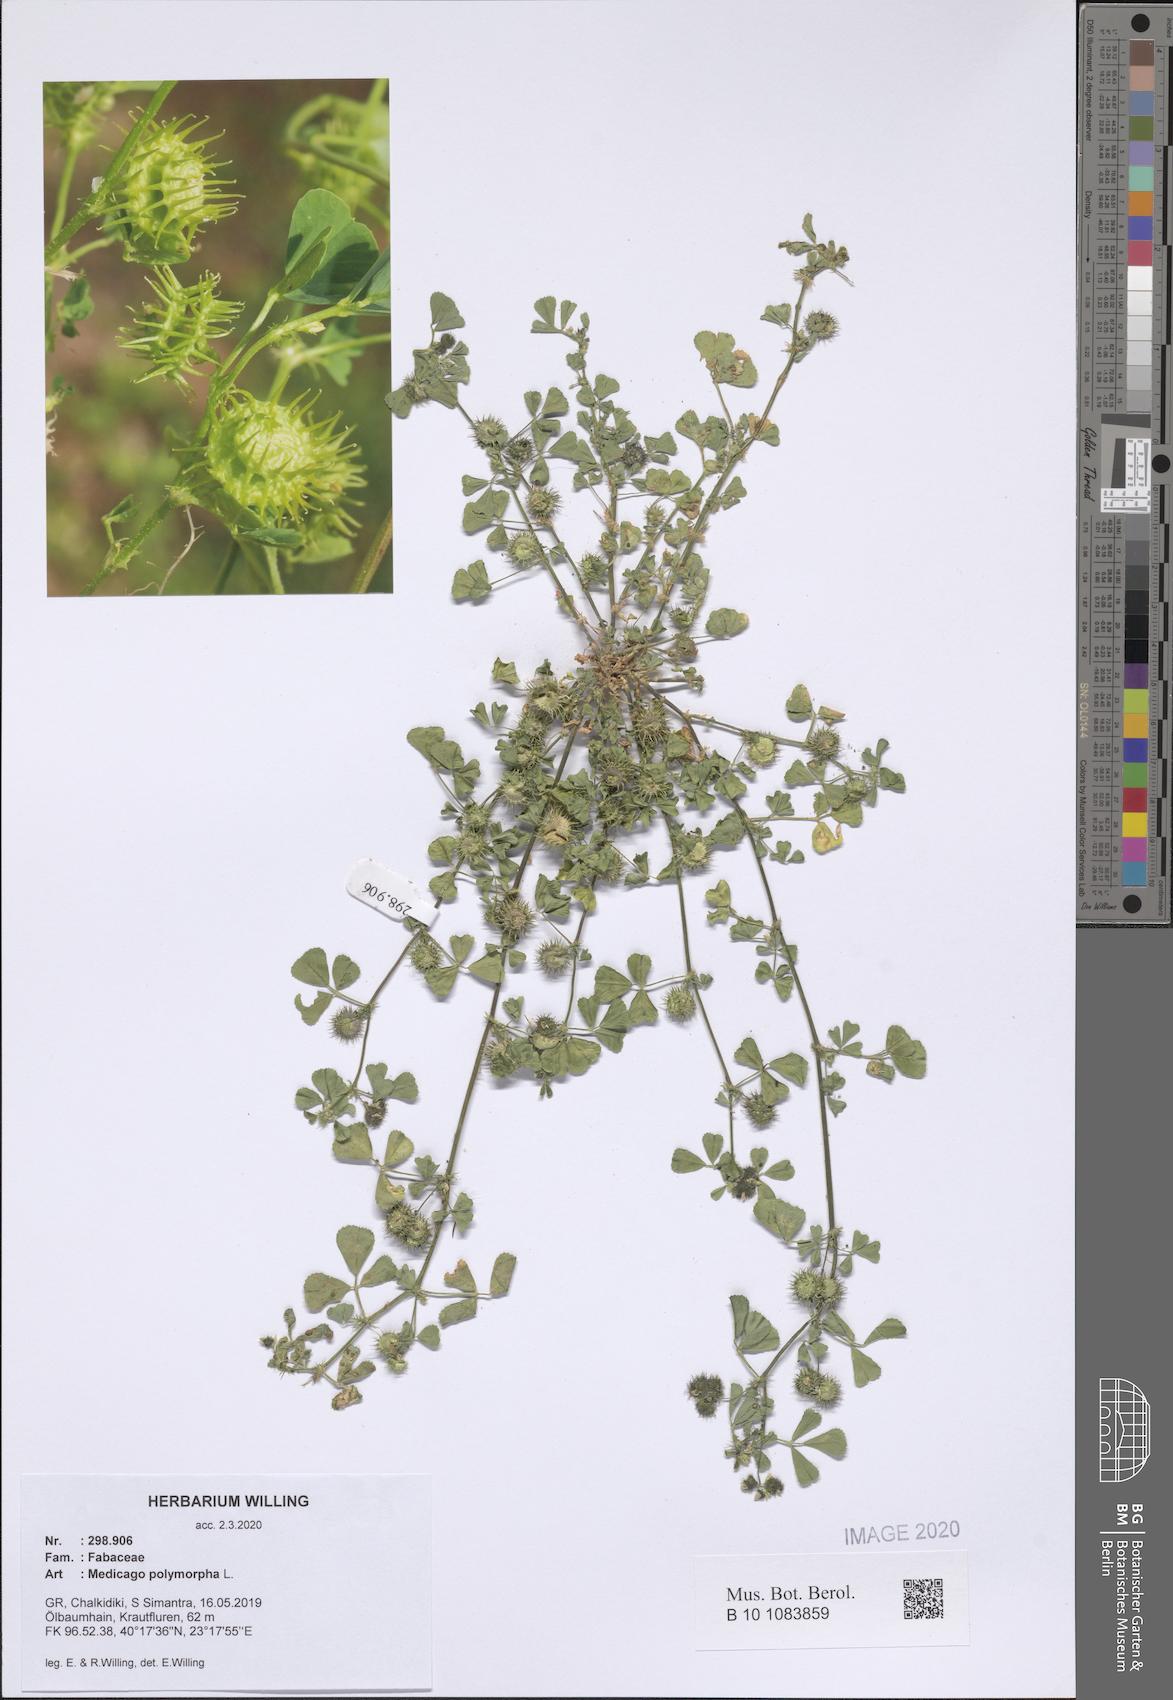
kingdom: Plantae
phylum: Tracheophyta
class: Magnoliopsida
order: Fabales
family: Fabaceae
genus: Medicago
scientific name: Medicago polymorpha
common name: Burclover
